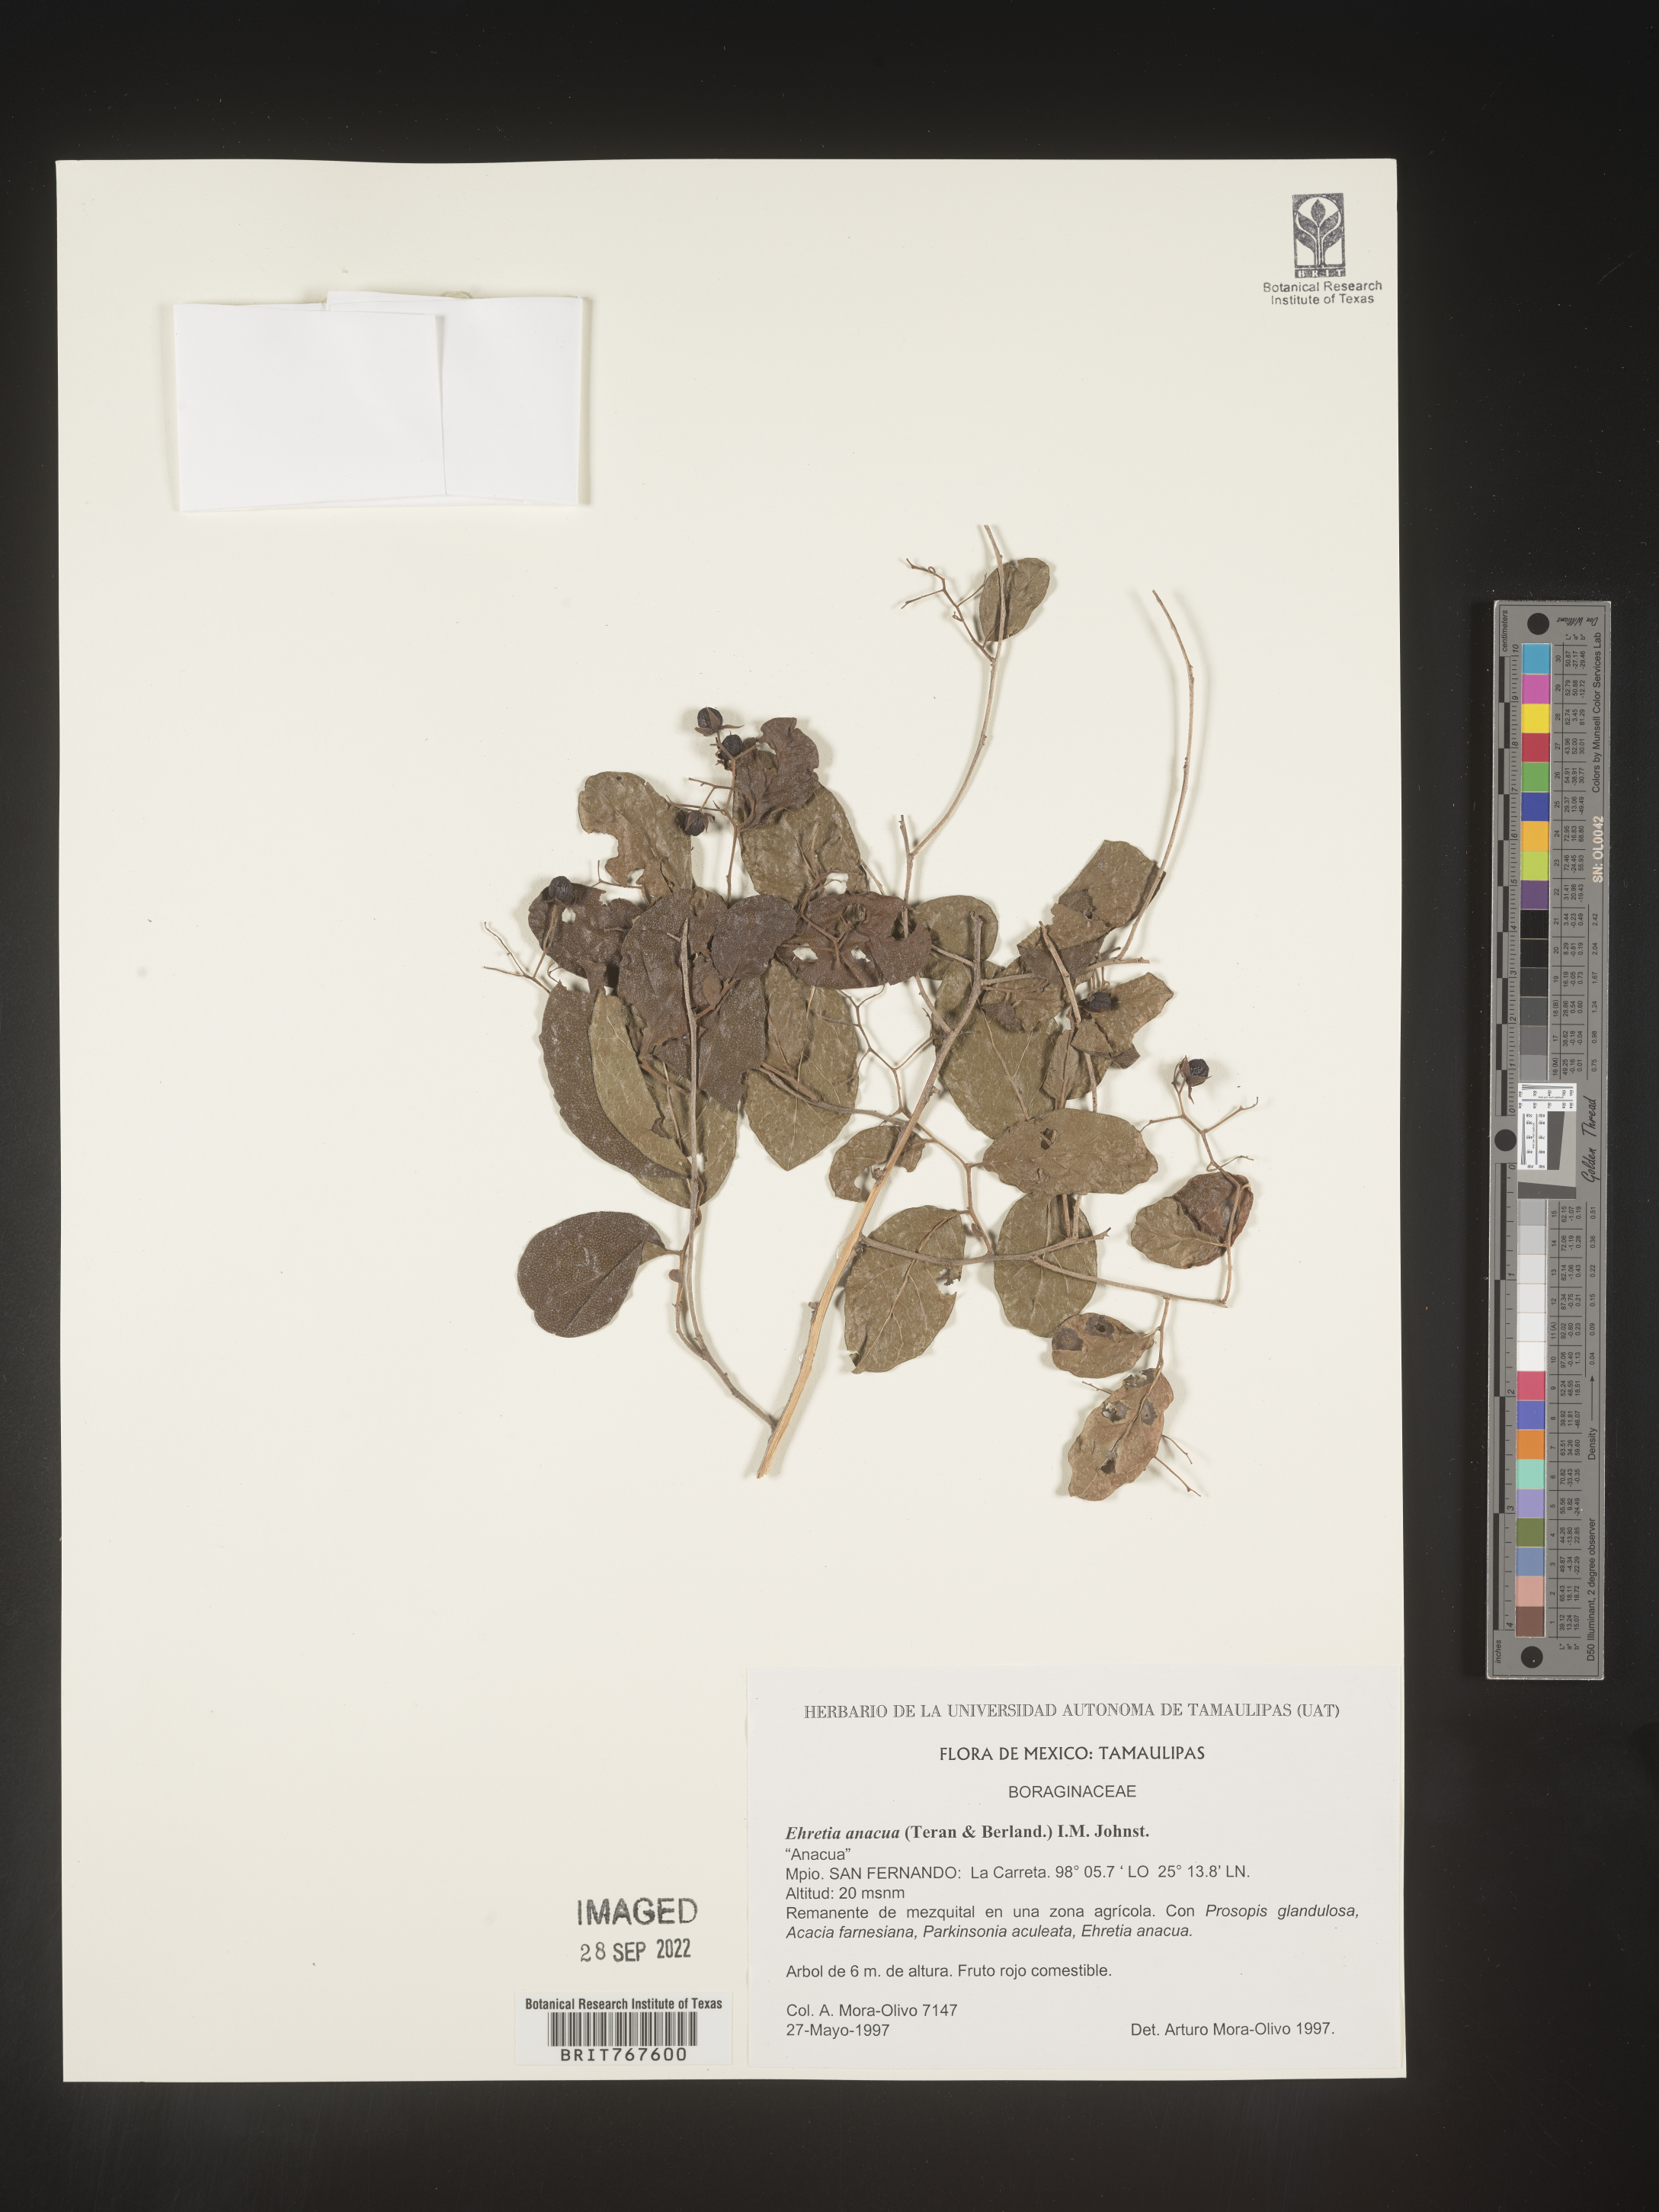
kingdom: Plantae
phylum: Tracheophyta
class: Magnoliopsida
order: Boraginales
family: Ehretiaceae
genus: Ehretia
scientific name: Ehretia
